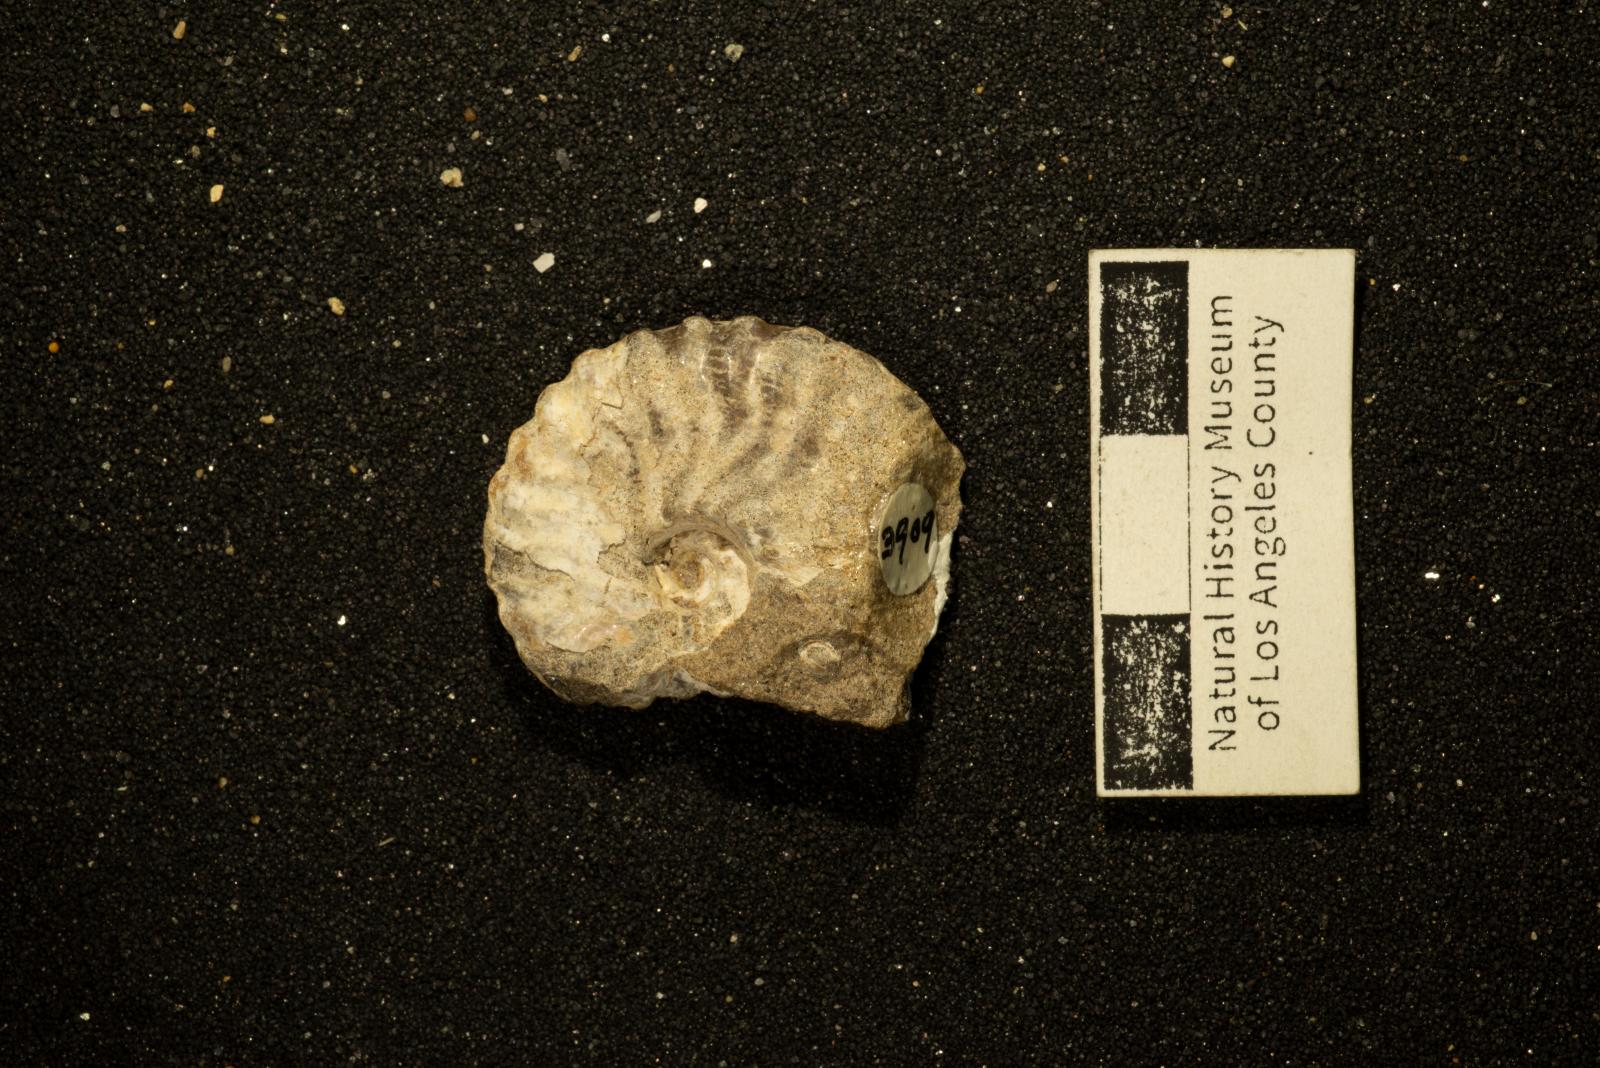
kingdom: Animalia
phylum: Mollusca
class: Cephalopoda
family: Placenticeratidae
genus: Metaplacenticeras
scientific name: Metaplacenticeras Placenticeras pacificum
